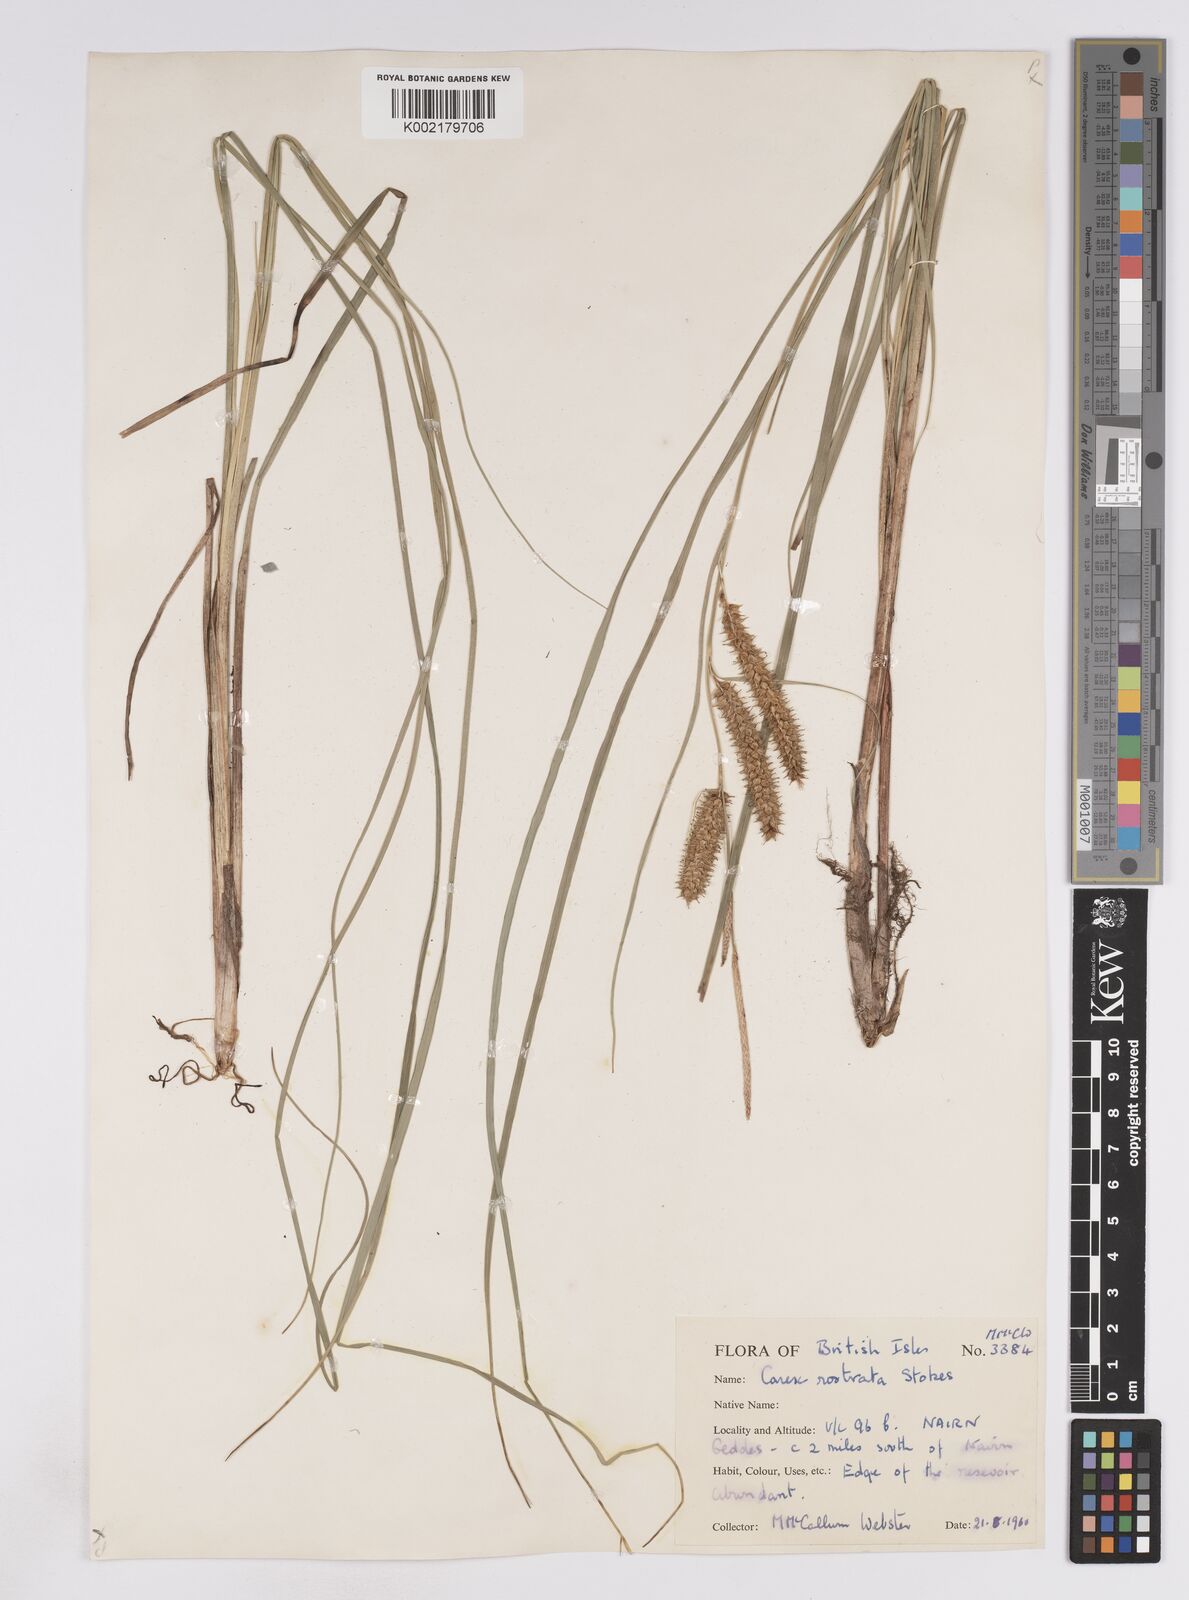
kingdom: Plantae
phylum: Tracheophyta
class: Liliopsida
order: Poales
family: Cyperaceae
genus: Carex
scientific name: Carex rostrata
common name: Bottle sedge
